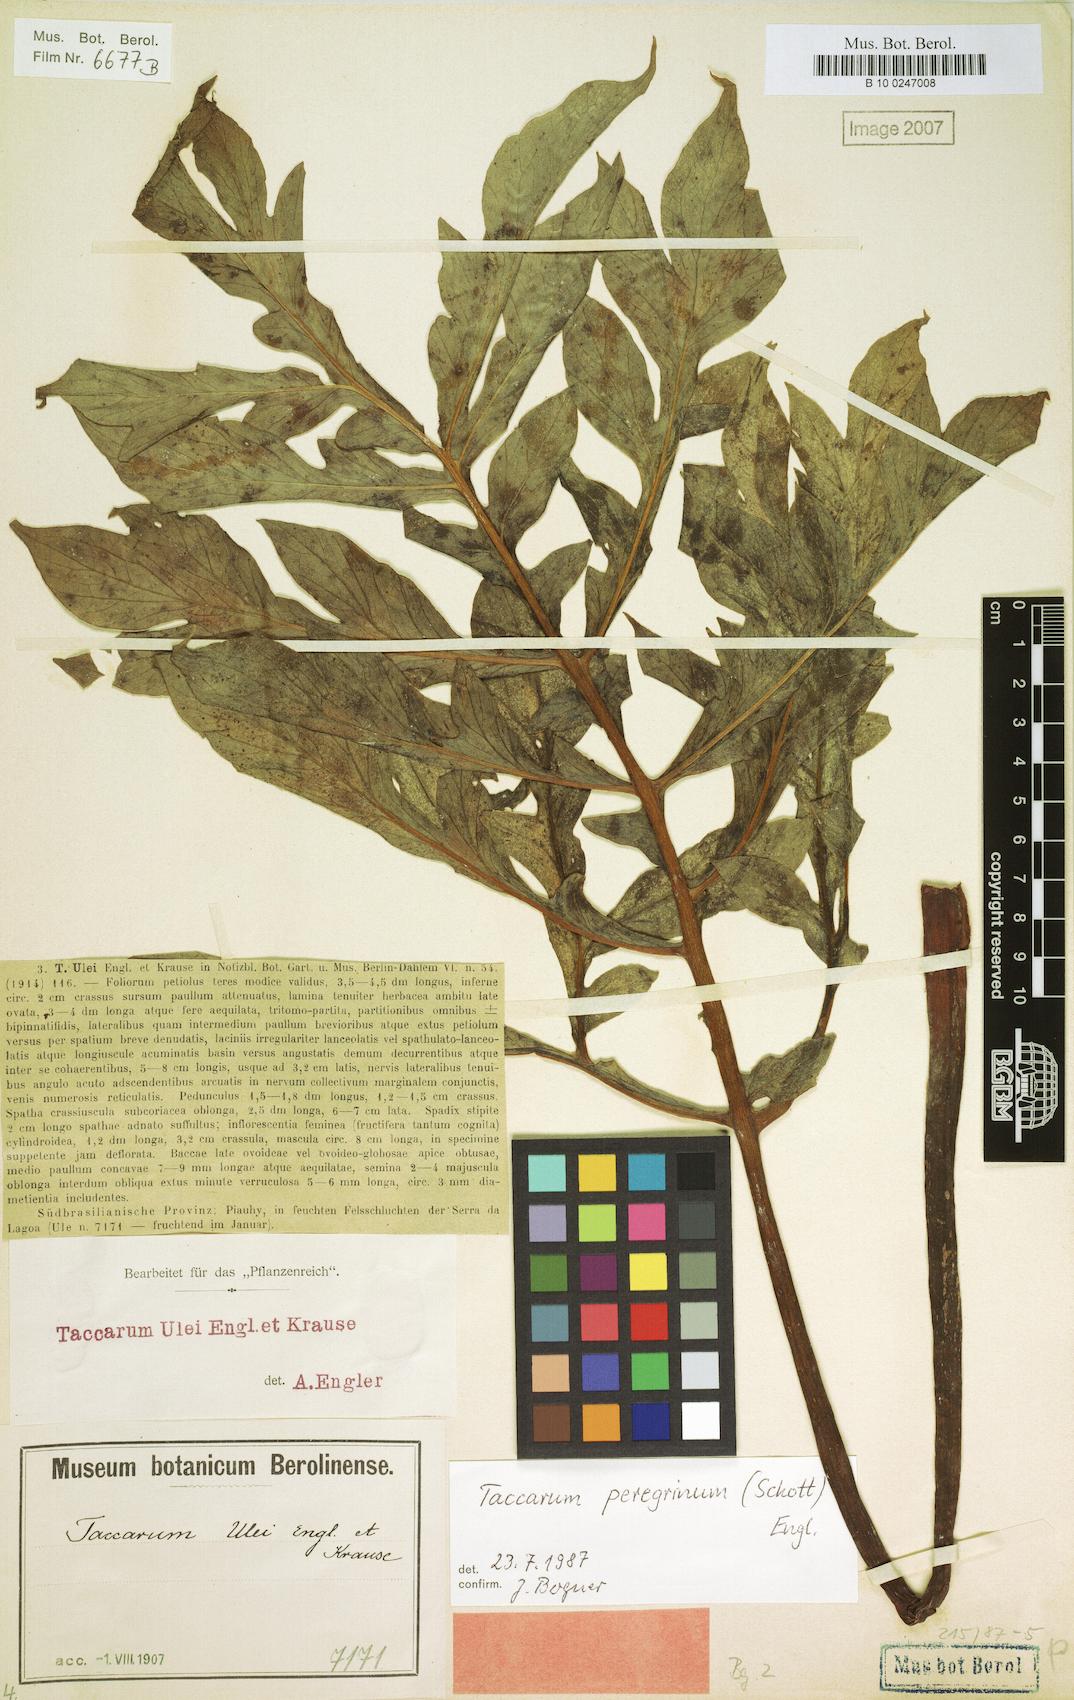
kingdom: Plantae
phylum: Tracheophyta
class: Liliopsida
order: Alismatales
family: Araceae
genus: Taccarum
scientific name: Taccarum peregrinum
